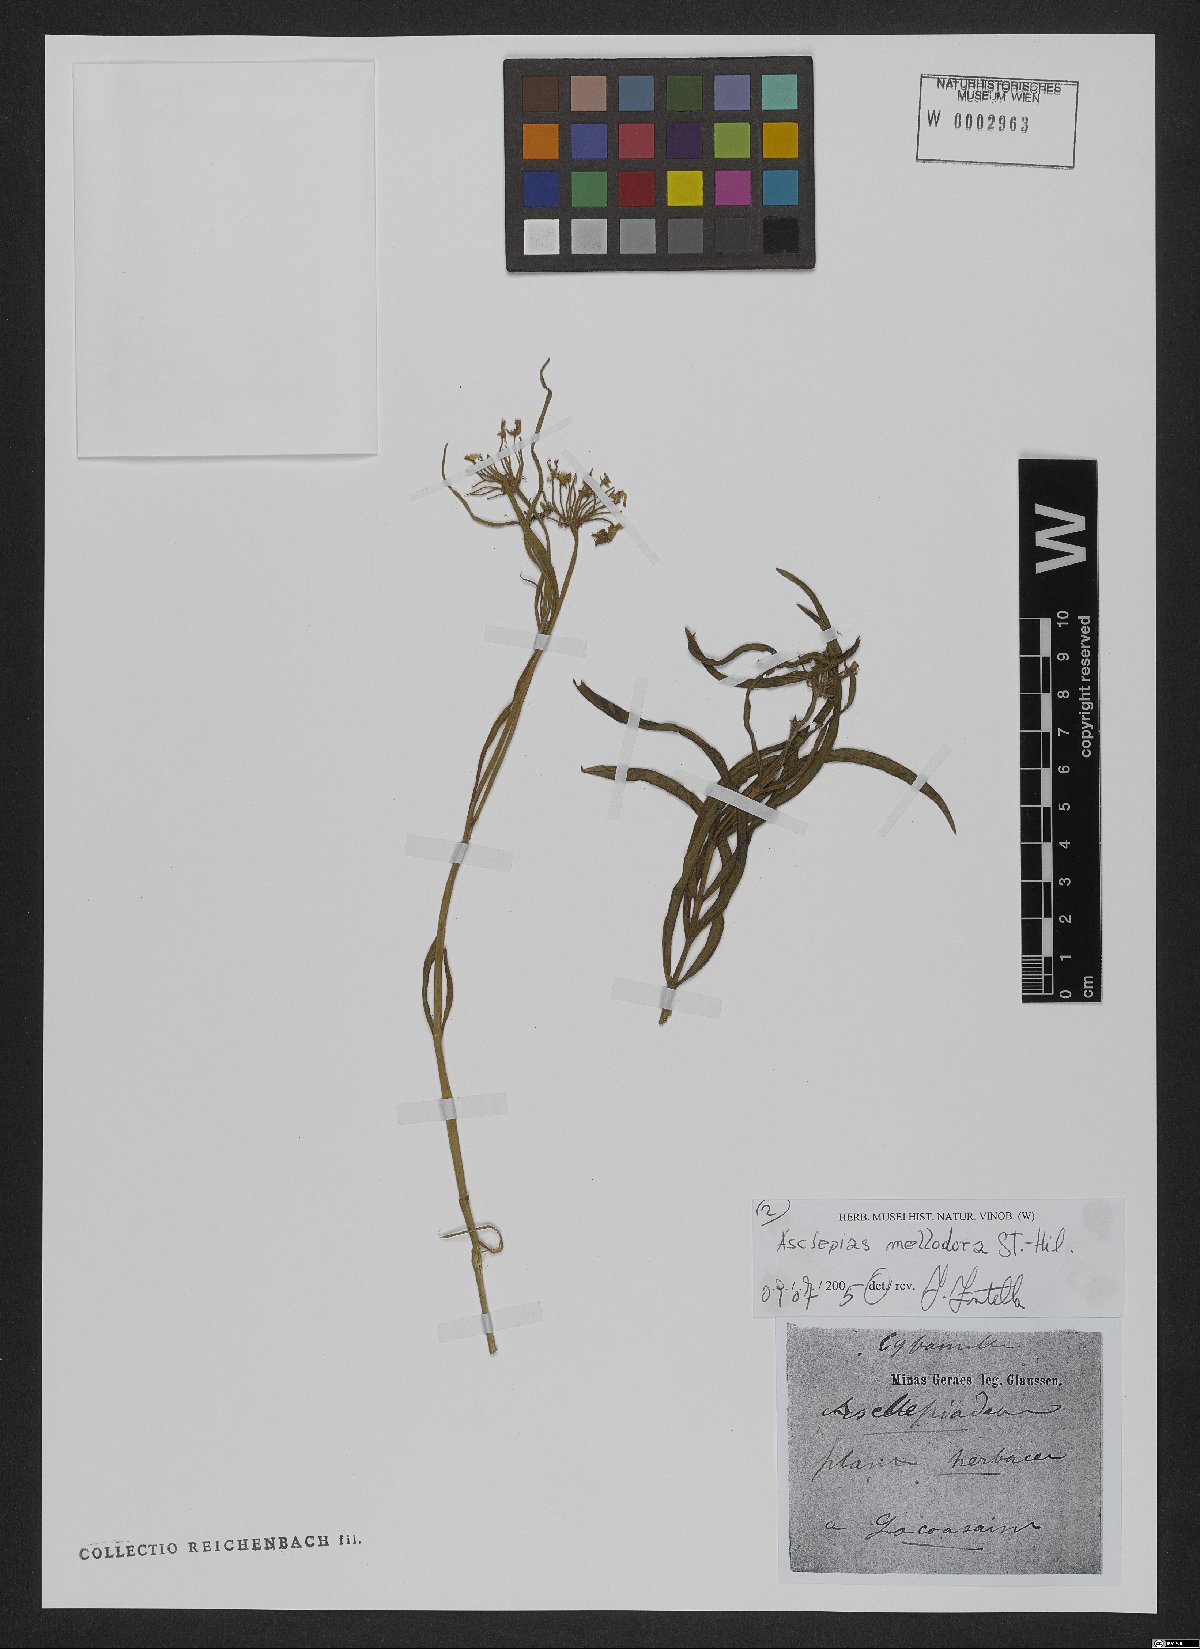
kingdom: Plantae
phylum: Tracheophyta
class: Magnoliopsida
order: Gentianales
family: Apocynaceae
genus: Asclepias
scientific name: Asclepias mellodora
